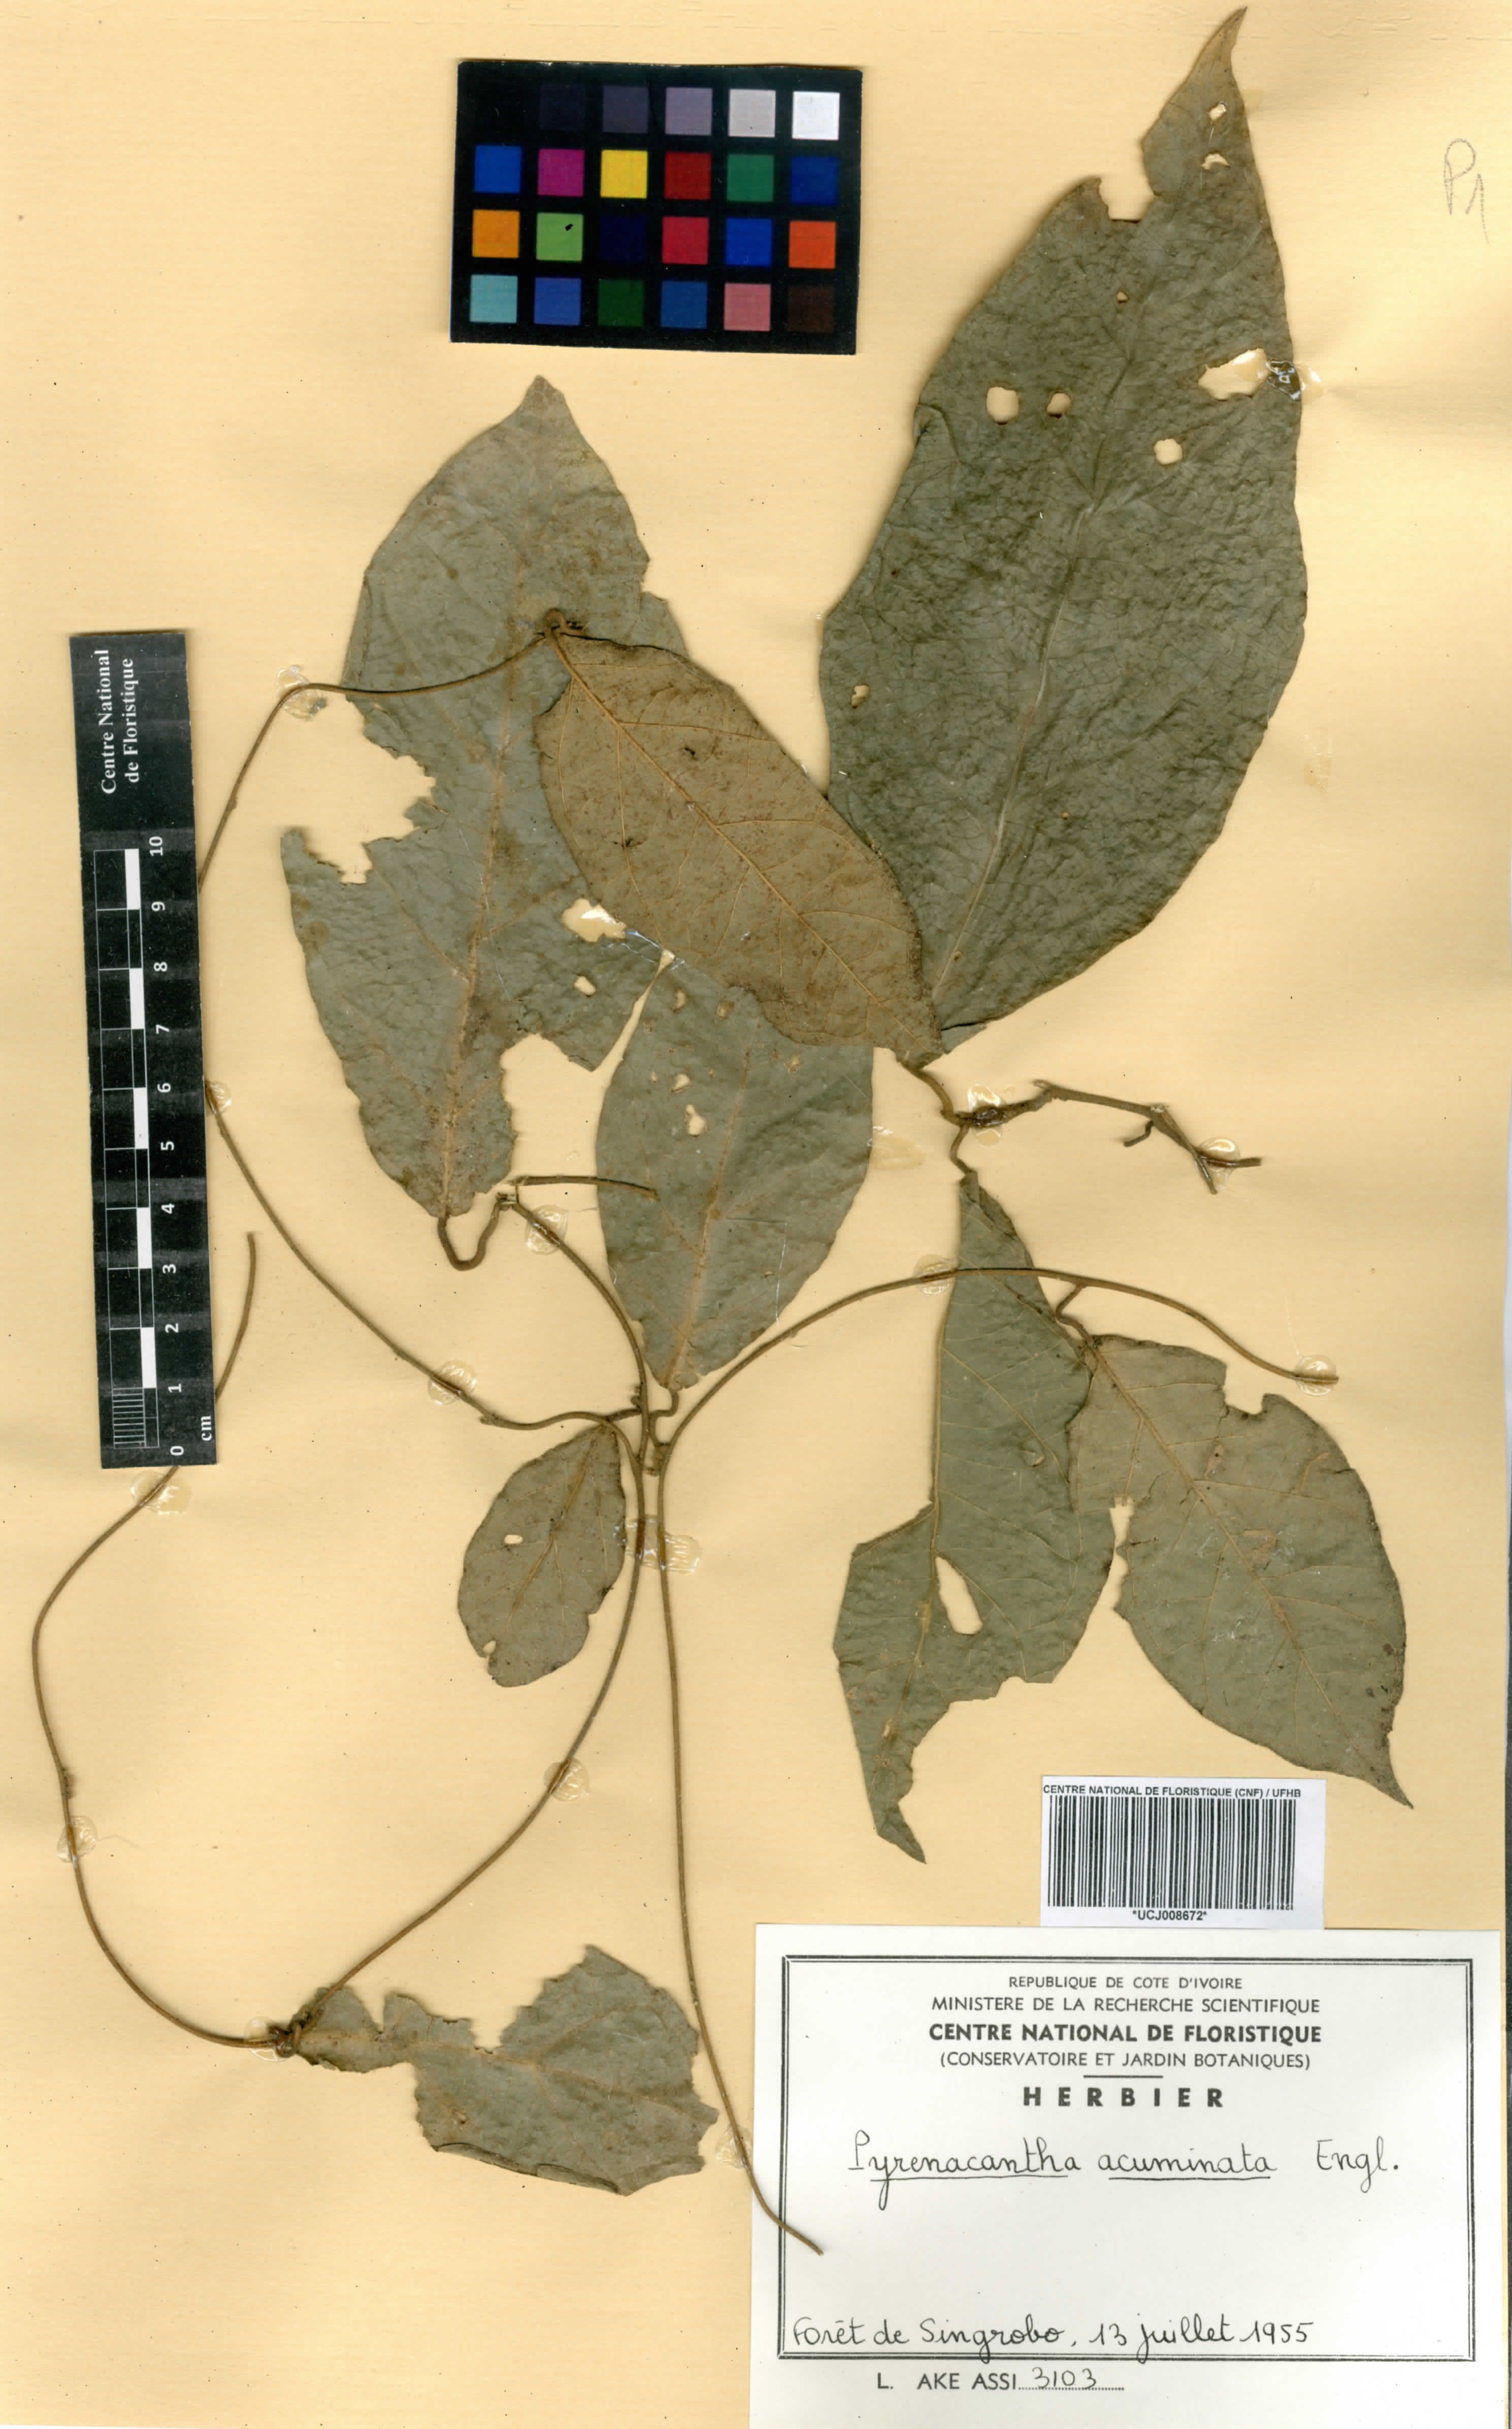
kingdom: Plantae
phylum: Tracheophyta
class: Magnoliopsida
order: Icacinales
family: Icacinaceae
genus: Pyrenacantha
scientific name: Pyrenacantha acuminata
